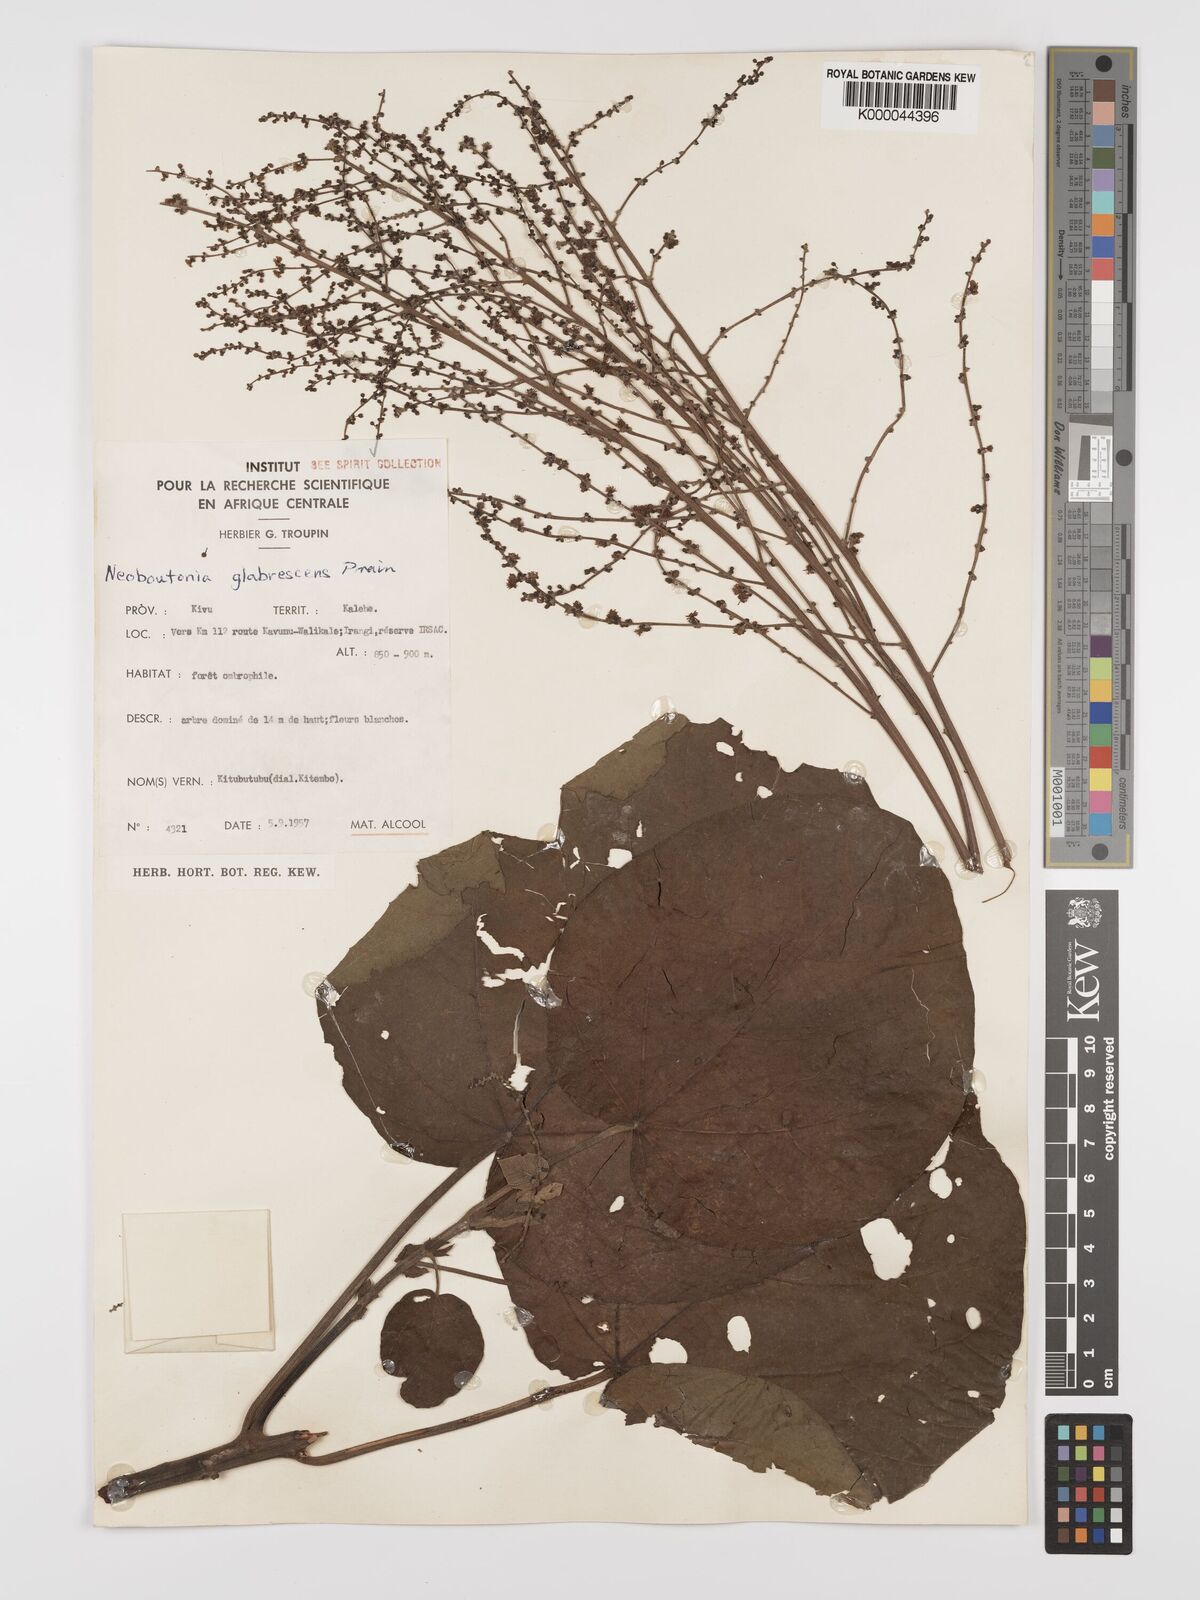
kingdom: Plantae
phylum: Tracheophyta
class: Magnoliopsida
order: Malpighiales
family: Euphorbiaceae
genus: Neoboutonia
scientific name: Neoboutonia mannii
